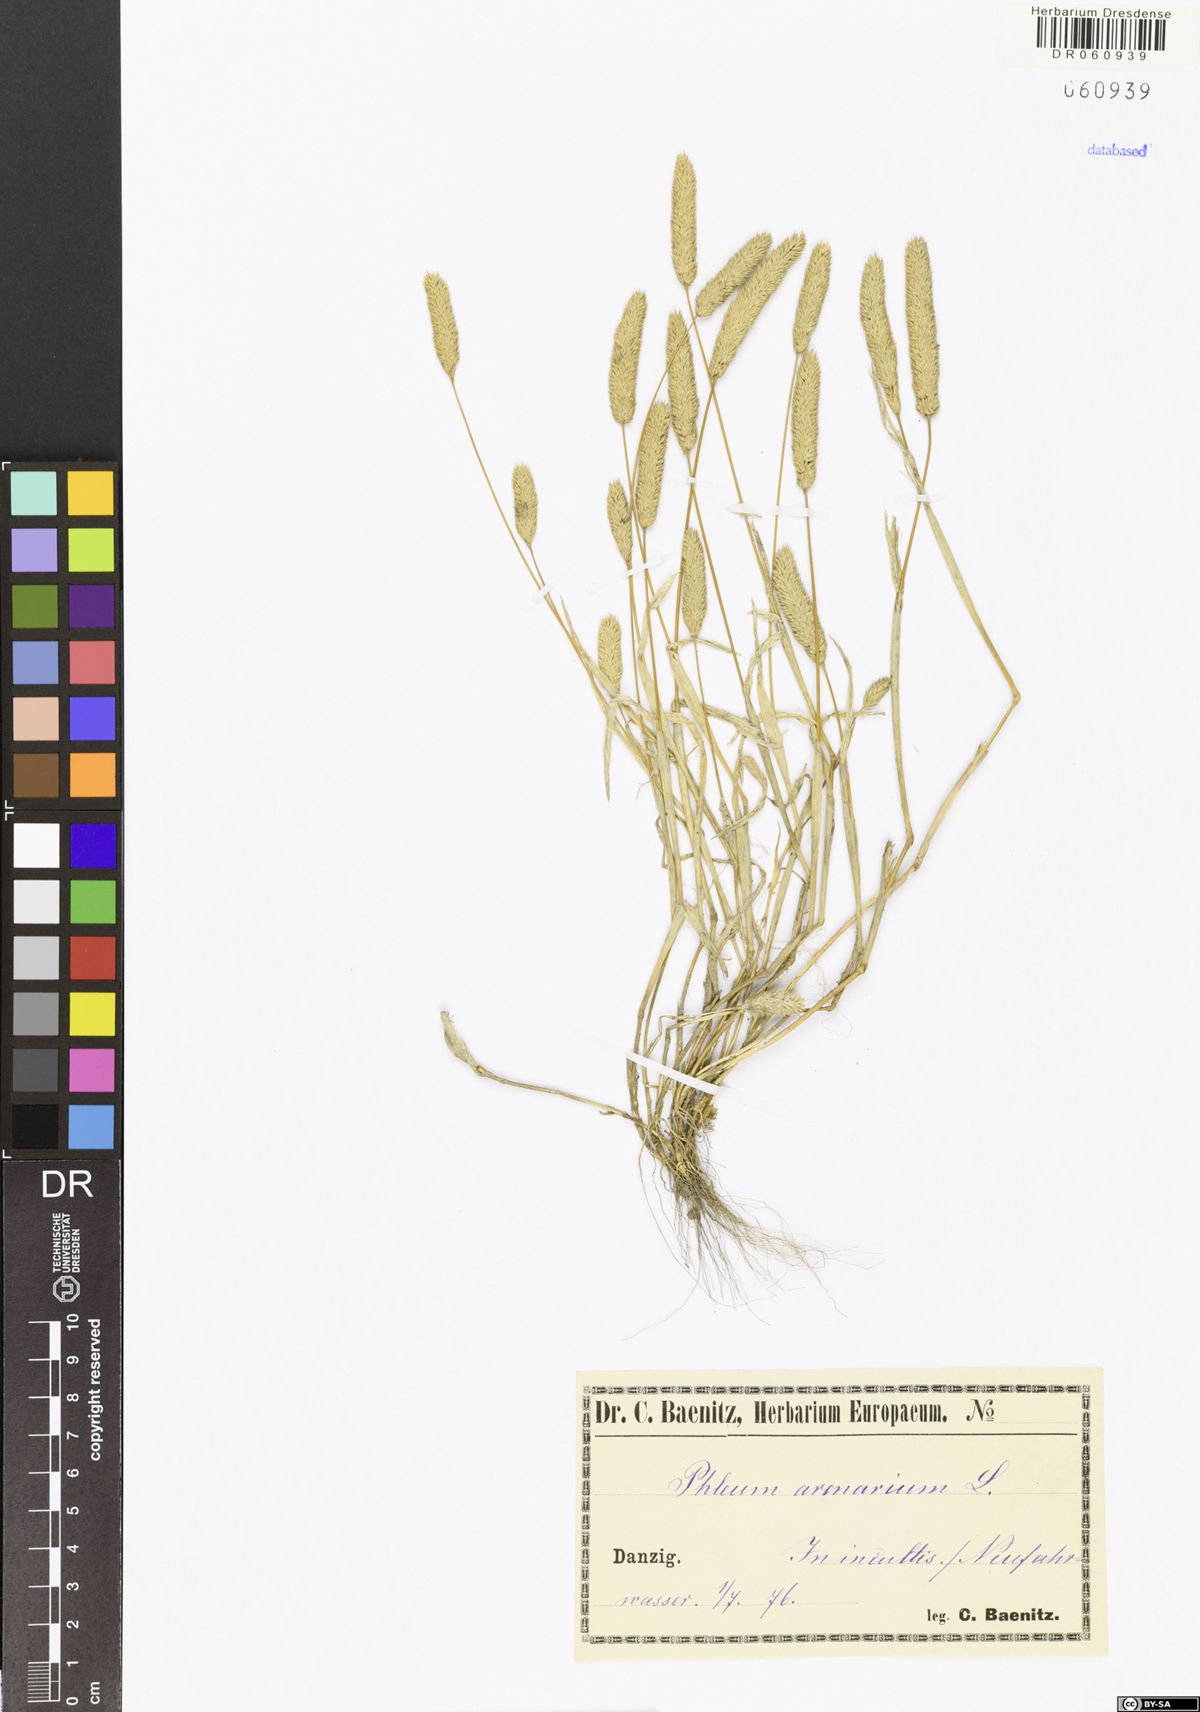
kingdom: Plantae
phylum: Tracheophyta
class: Liliopsida
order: Poales
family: Poaceae
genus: Phleum
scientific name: Phleum arenarium
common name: Sand cat's-tail
